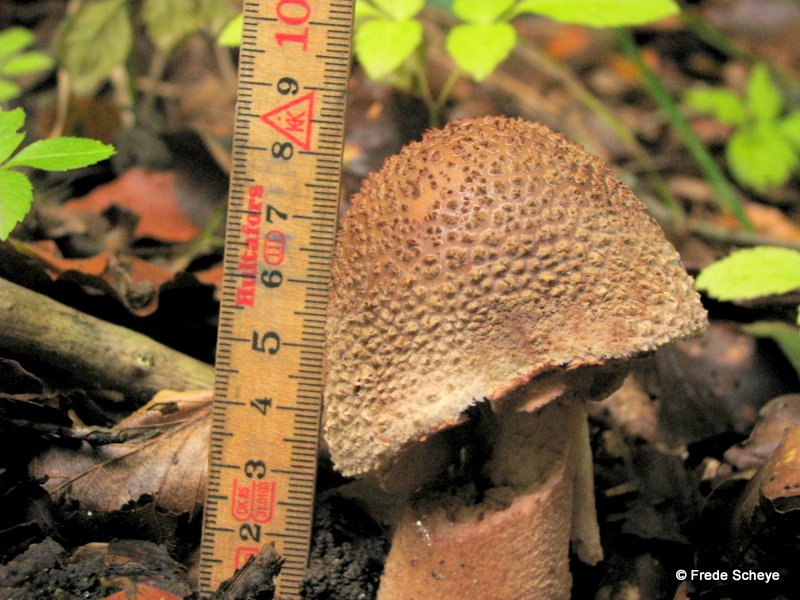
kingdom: Fungi
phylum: Basidiomycota
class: Agaricomycetes
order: Agaricales
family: Amanitaceae
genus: Amanita
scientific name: Amanita rubescens
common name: rødmende fluesvamp
